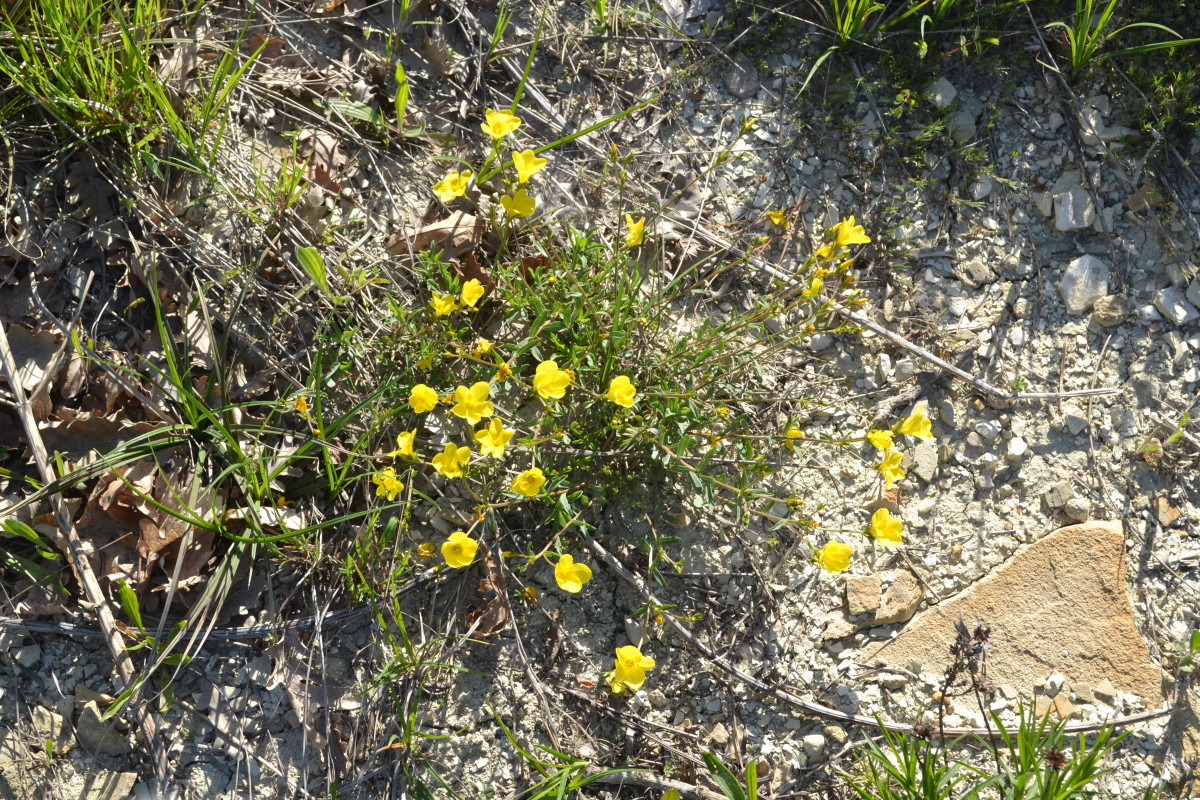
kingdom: Plantae
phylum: Tracheophyta
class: Magnoliopsida
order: Malpighiales
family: Linaceae
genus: Linum
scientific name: Linum flavum
